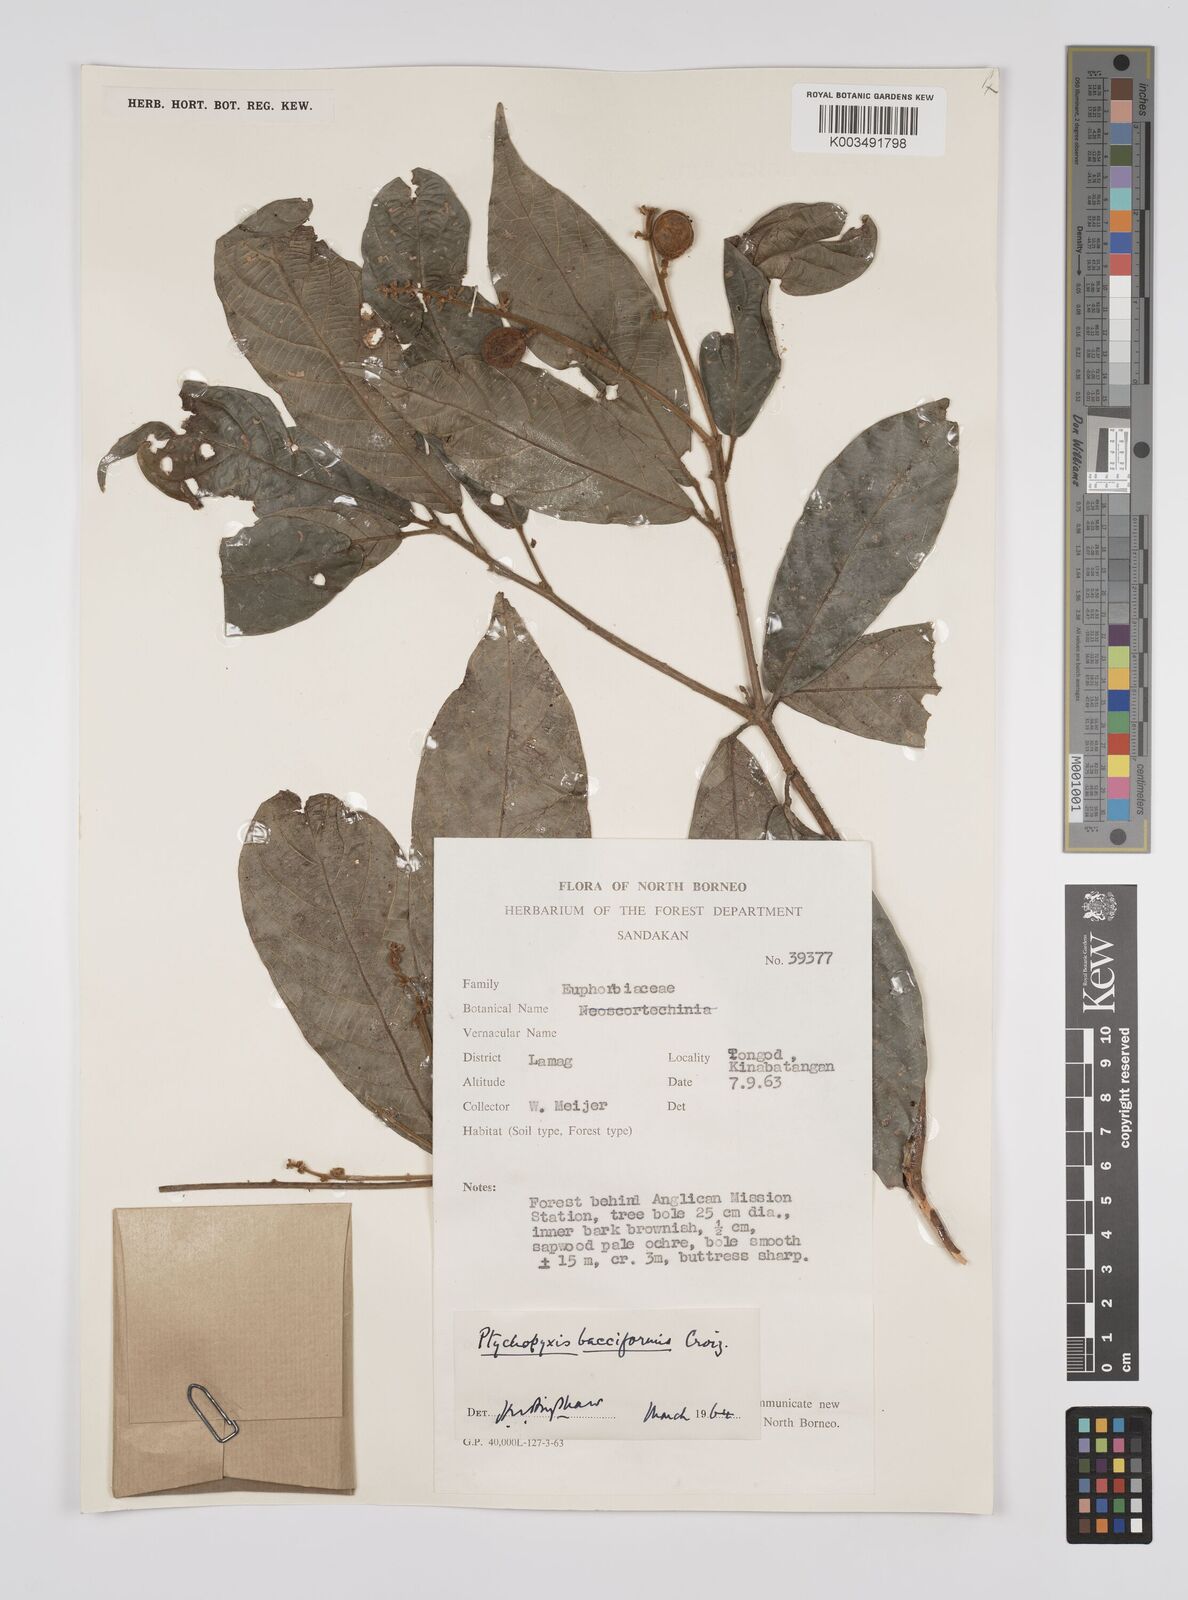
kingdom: Plantae
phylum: Tracheophyta
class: Magnoliopsida
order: Malpighiales
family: Euphorbiaceae
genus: Ptychopyxis
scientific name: Ptychopyxis bacciformis
